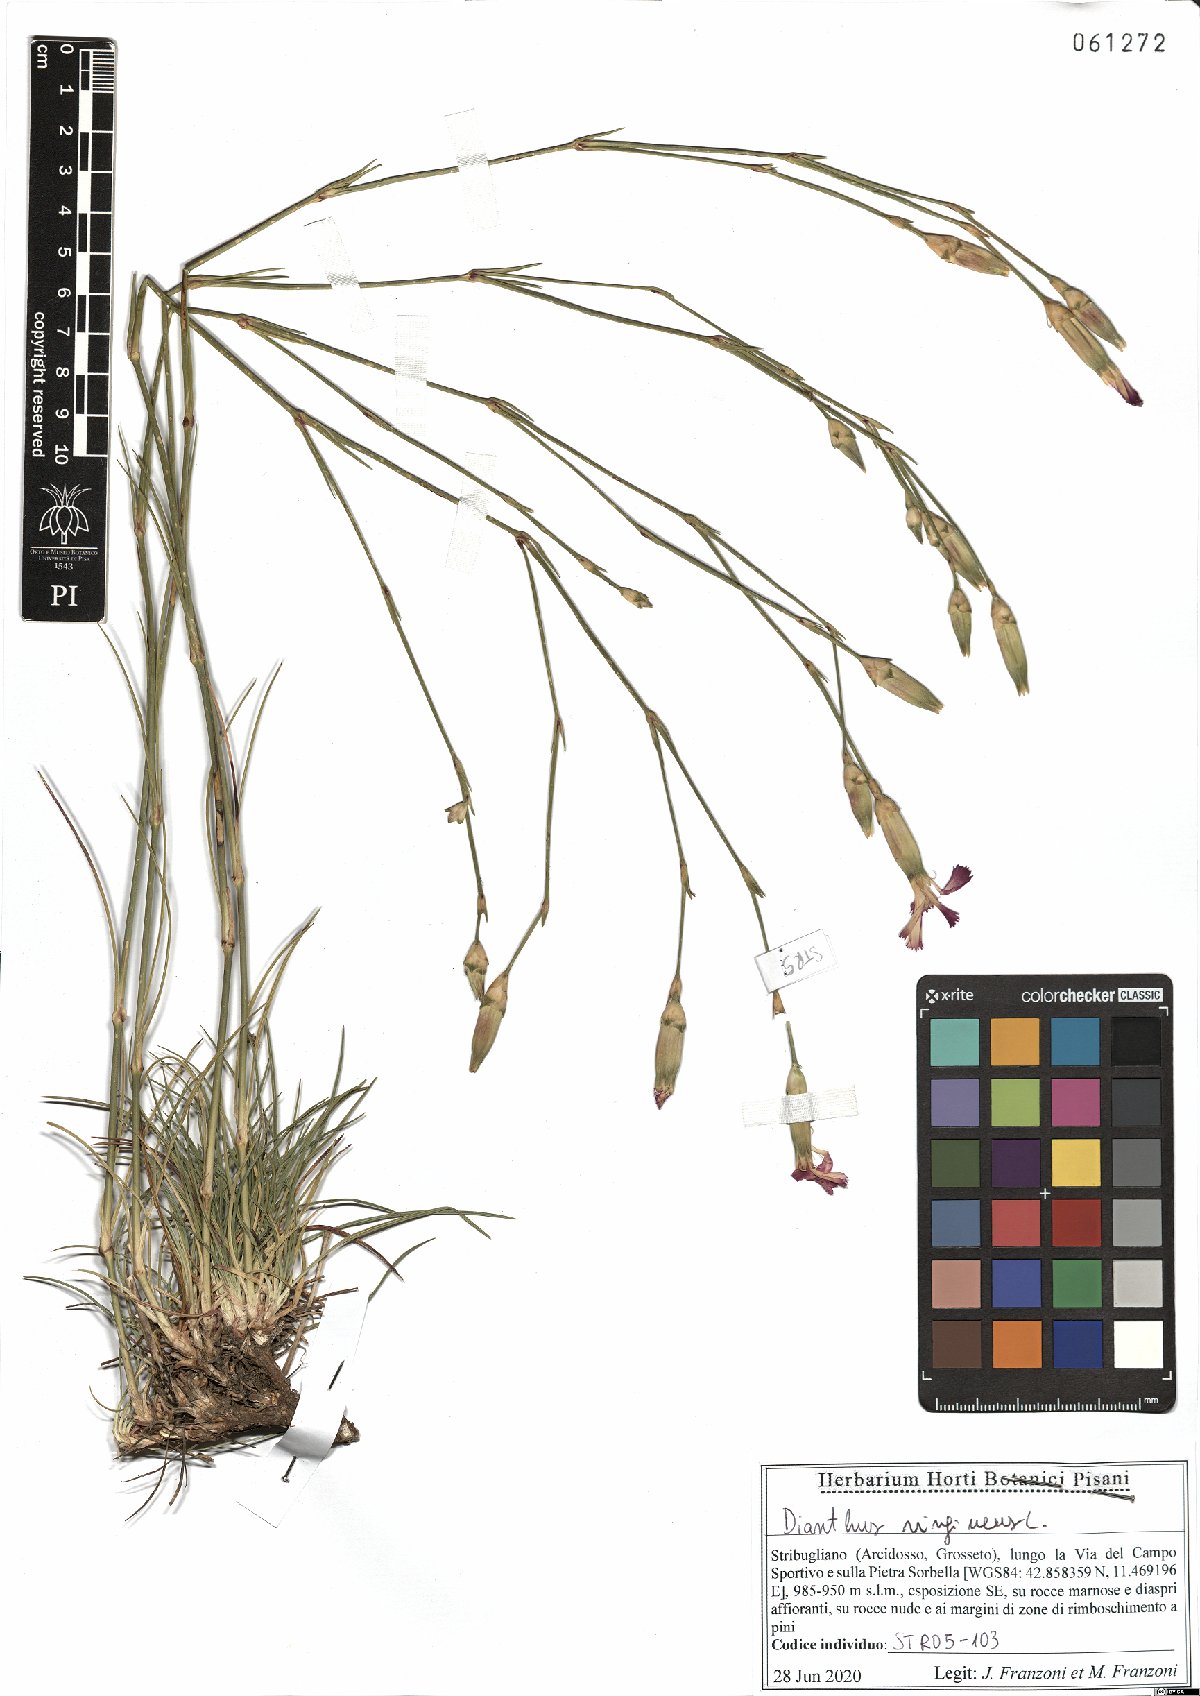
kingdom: Plantae
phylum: Tracheophyta
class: Magnoliopsida
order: Caryophyllales
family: Caryophyllaceae
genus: Dianthus
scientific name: Dianthus virgineus
